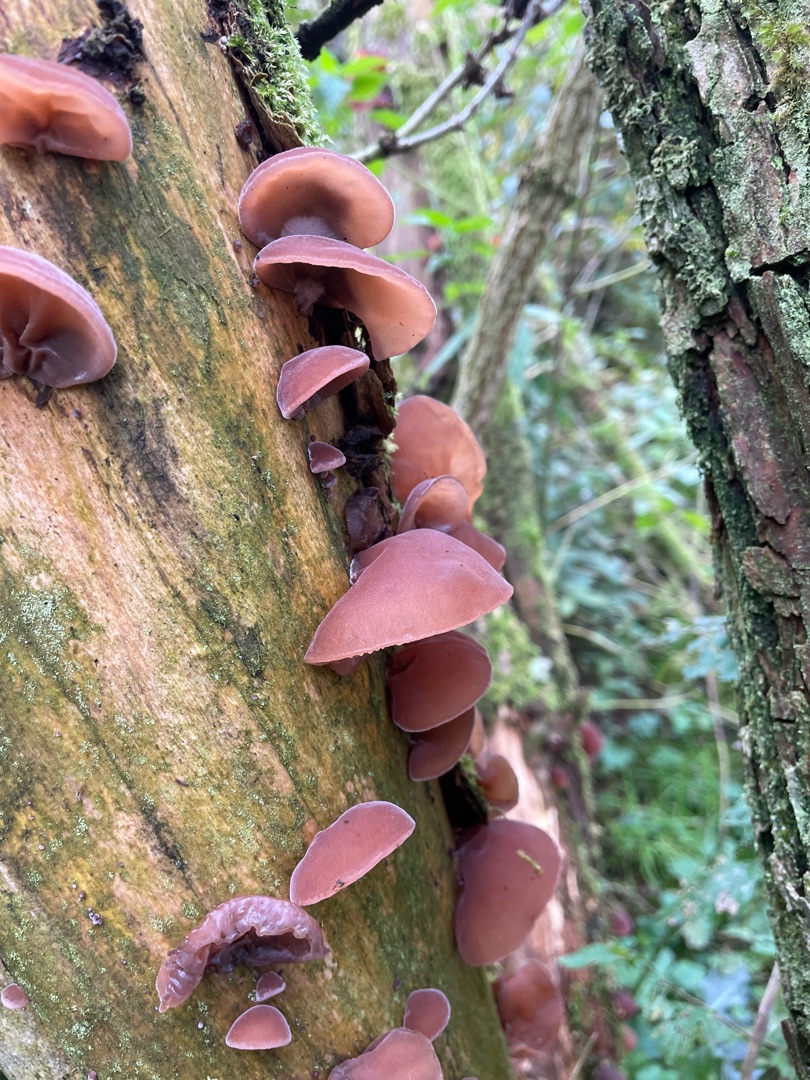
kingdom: Fungi
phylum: Basidiomycota
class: Agaricomycetes
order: Auriculariales
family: Auriculariaceae
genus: Auricularia
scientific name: Auricularia auricula-judae
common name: Almindelig judasøre
